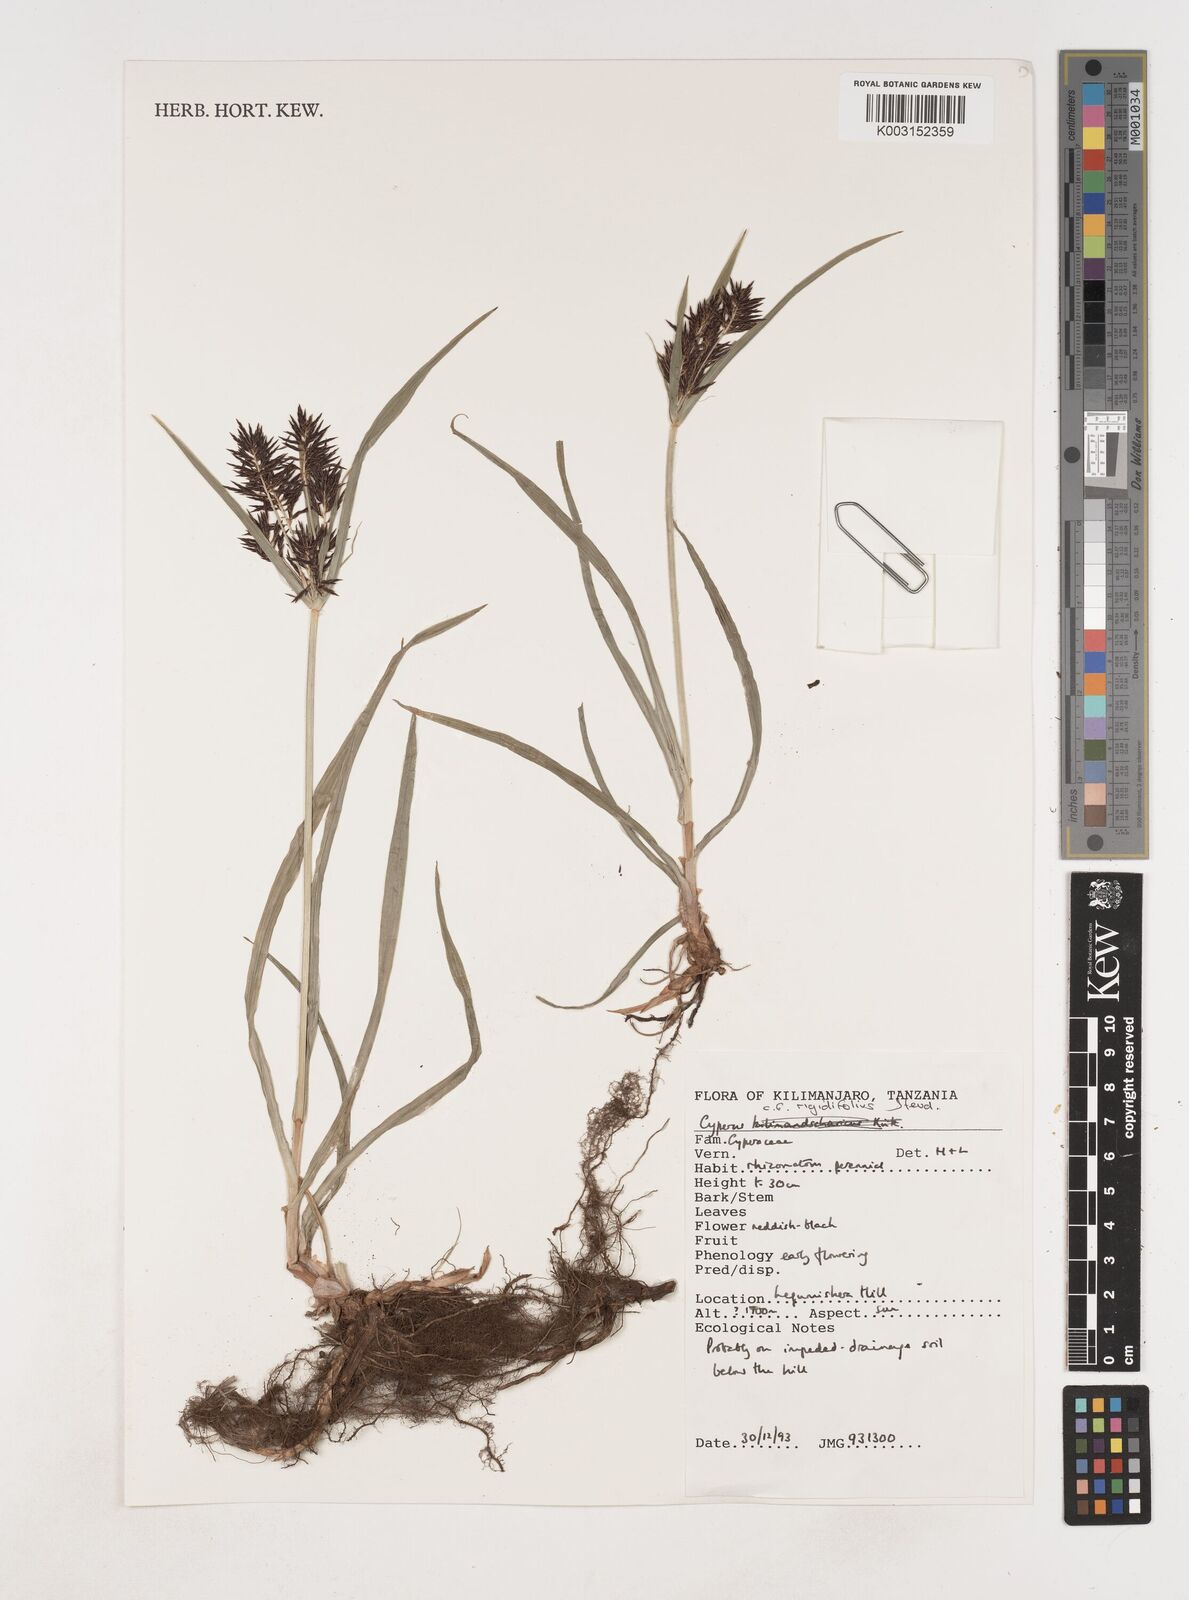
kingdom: Plantae
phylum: Tracheophyta
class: Liliopsida
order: Poales
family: Cyperaceae
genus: Cyperus
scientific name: Cyperus rigidifolius
